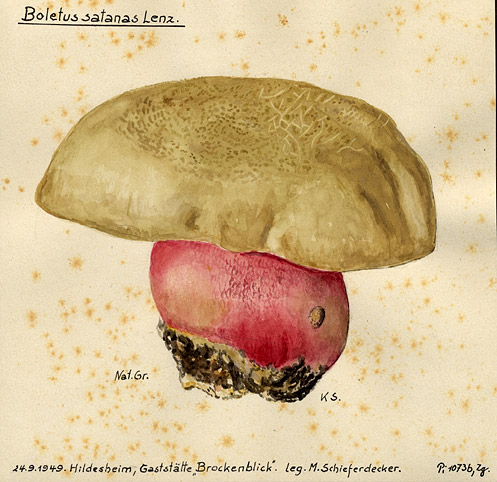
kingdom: Fungi
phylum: Basidiomycota
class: Agaricomycetes
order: Boletales
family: Boletaceae
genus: Rubroboletus
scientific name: Rubroboletus satanas
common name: Devil's bolete
